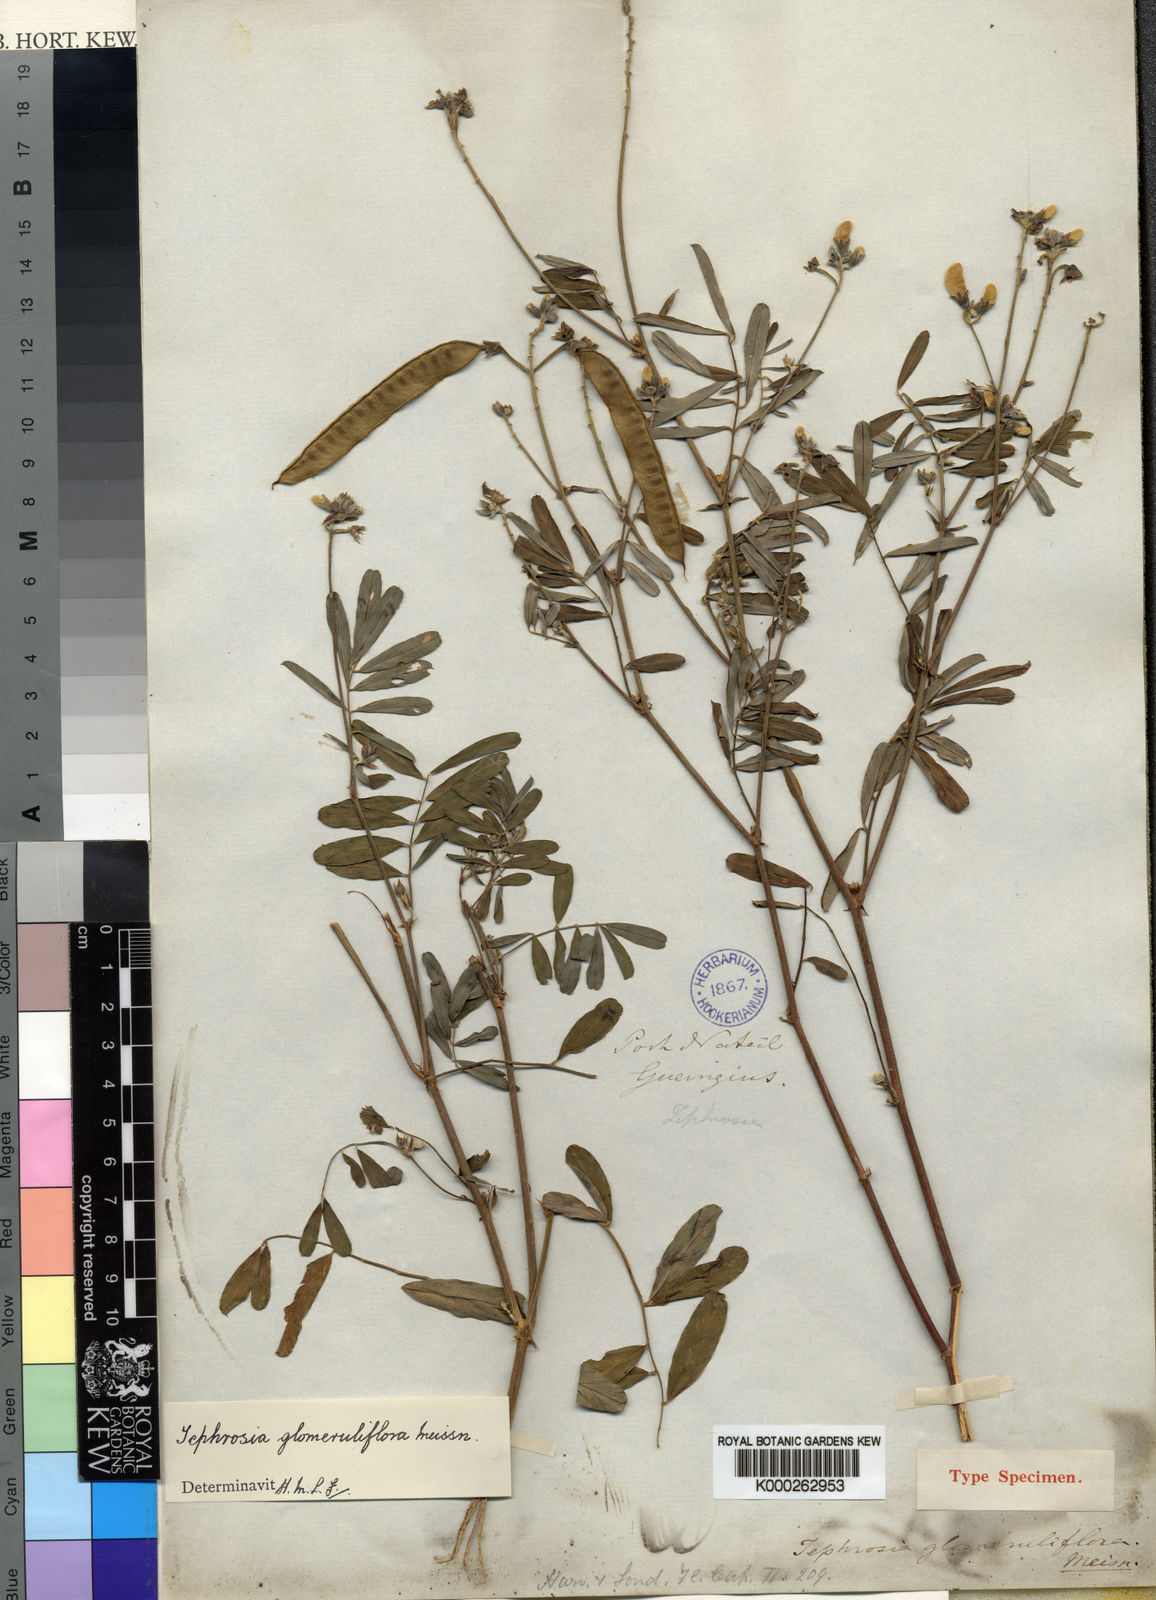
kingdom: Plantae
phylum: Tracheophyta
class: Magnoliopsida
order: Fabales
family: Fabaceae
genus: Tephrosia
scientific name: Tephrosia glomeruliflora
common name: Pink tephrosia
